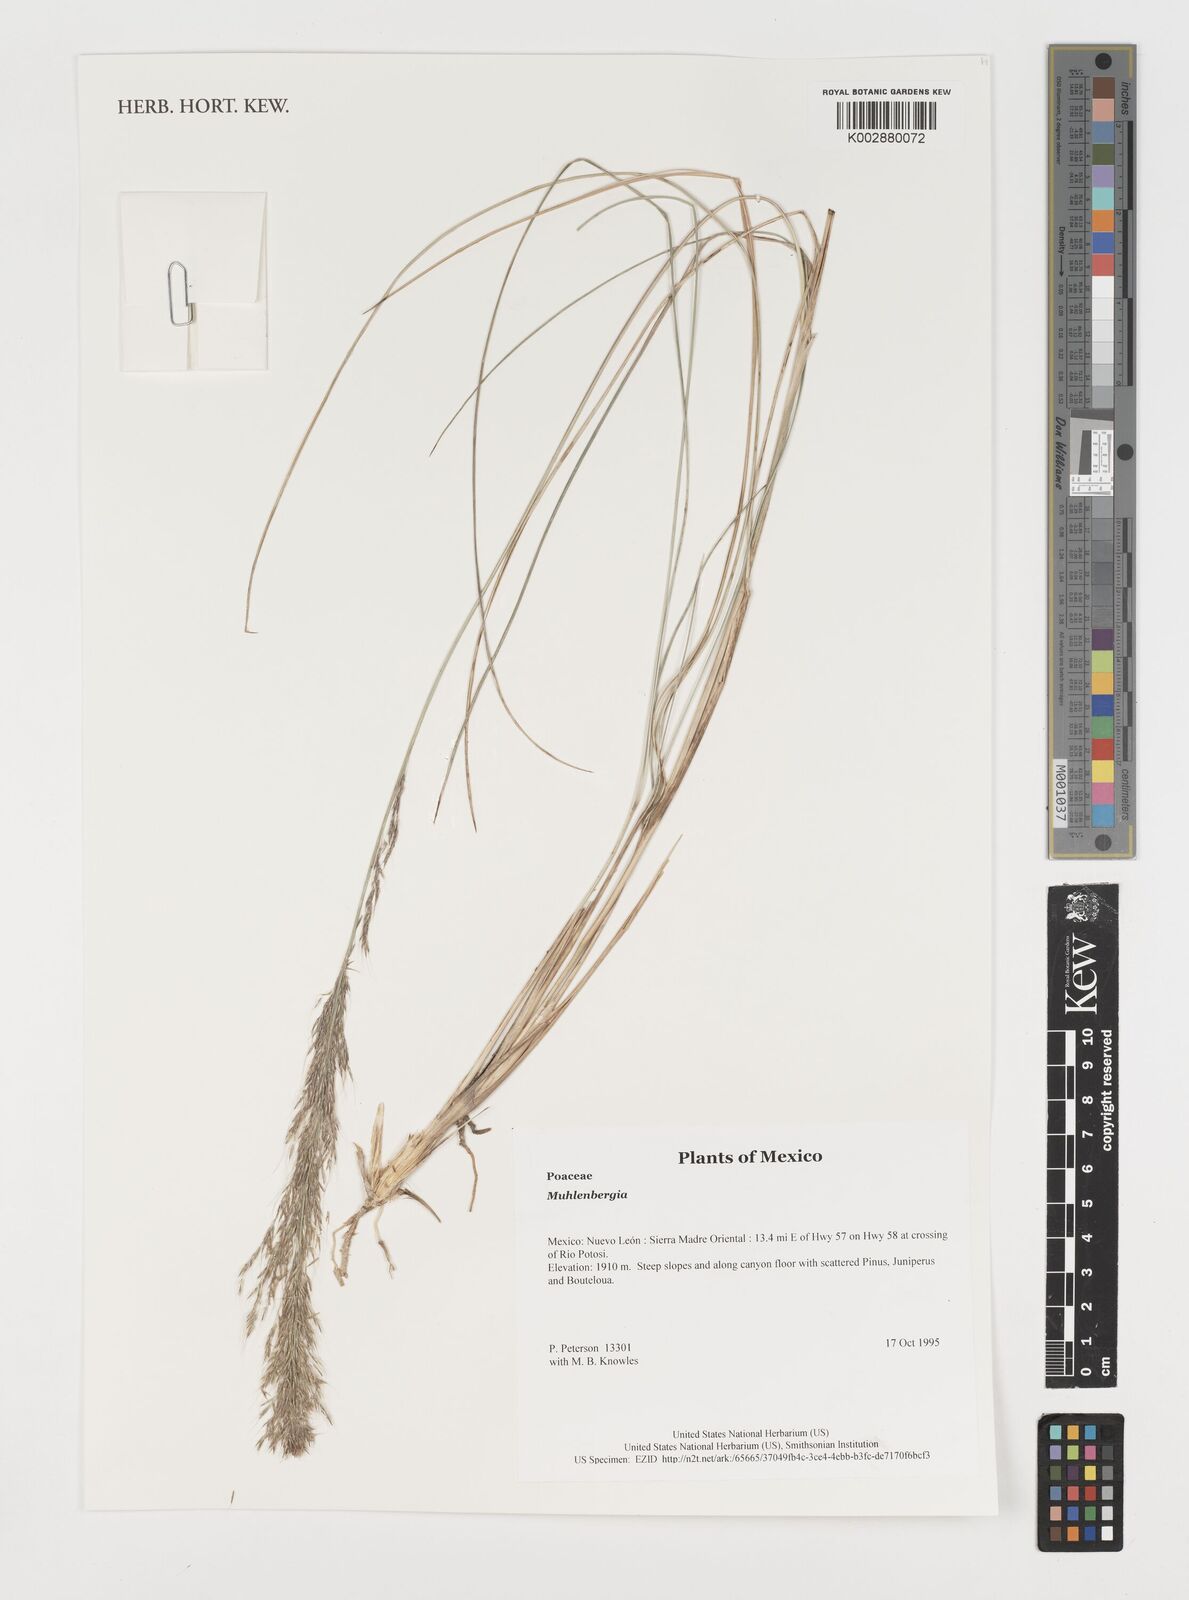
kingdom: Plantae
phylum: Tracheophyta
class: Liliopsida
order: Poales
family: Poaceae
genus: Muhlenbergia
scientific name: Muhlenbergia
